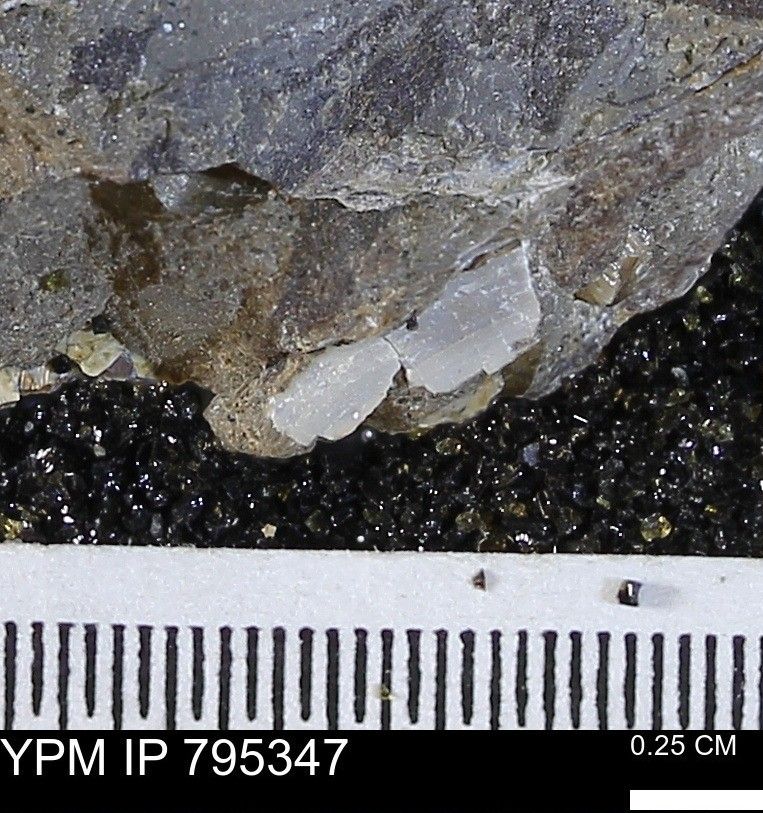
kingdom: Animalia
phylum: Mollusca
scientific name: Mollusca
